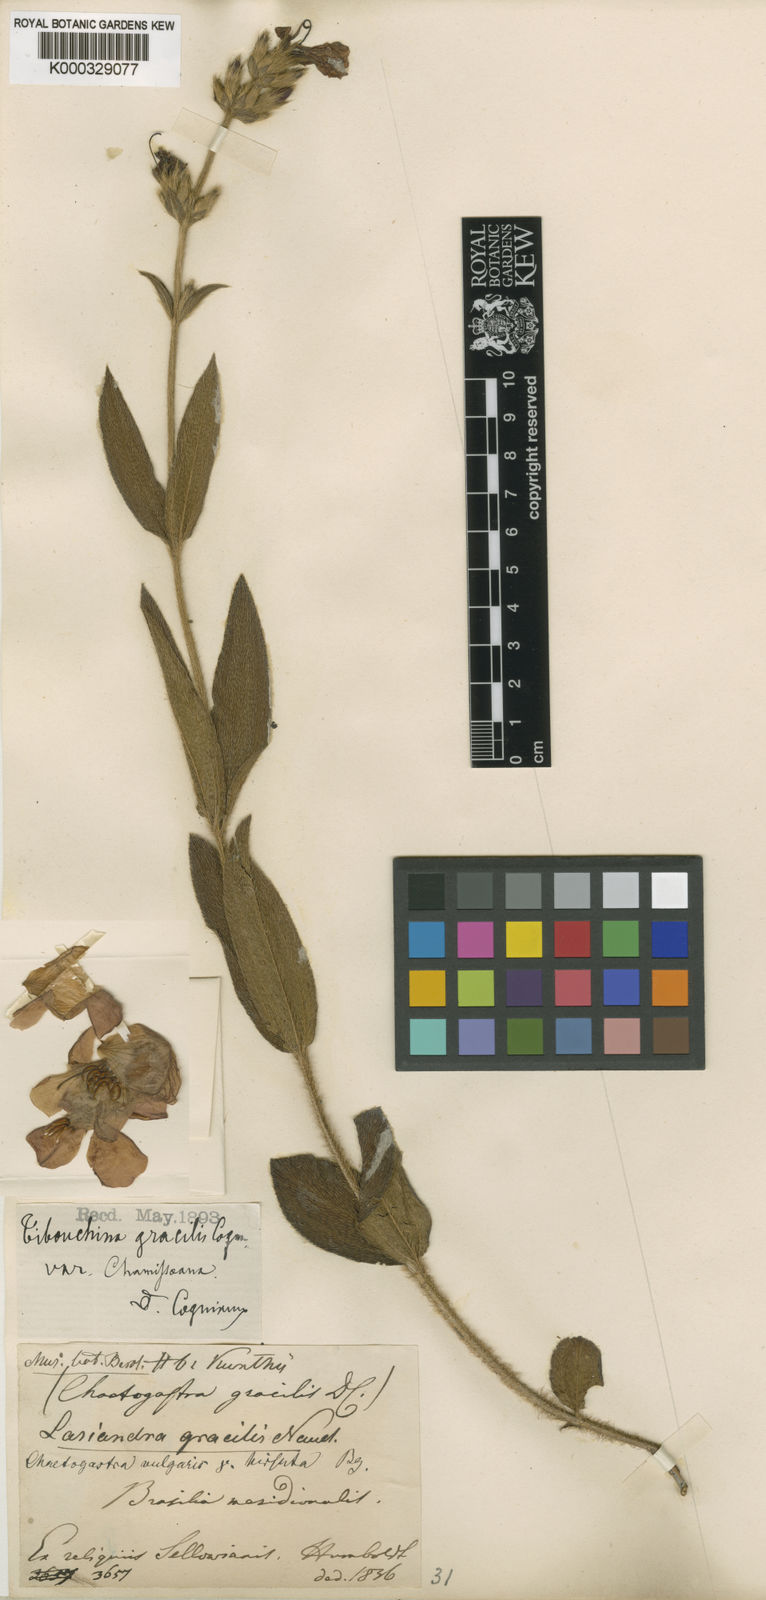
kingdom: Plantae
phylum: Tracheophyta
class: Magnoliopsida
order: Myrtales
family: Melastomataceae
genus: Chaetogastra
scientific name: Chaetogastra gracilis
